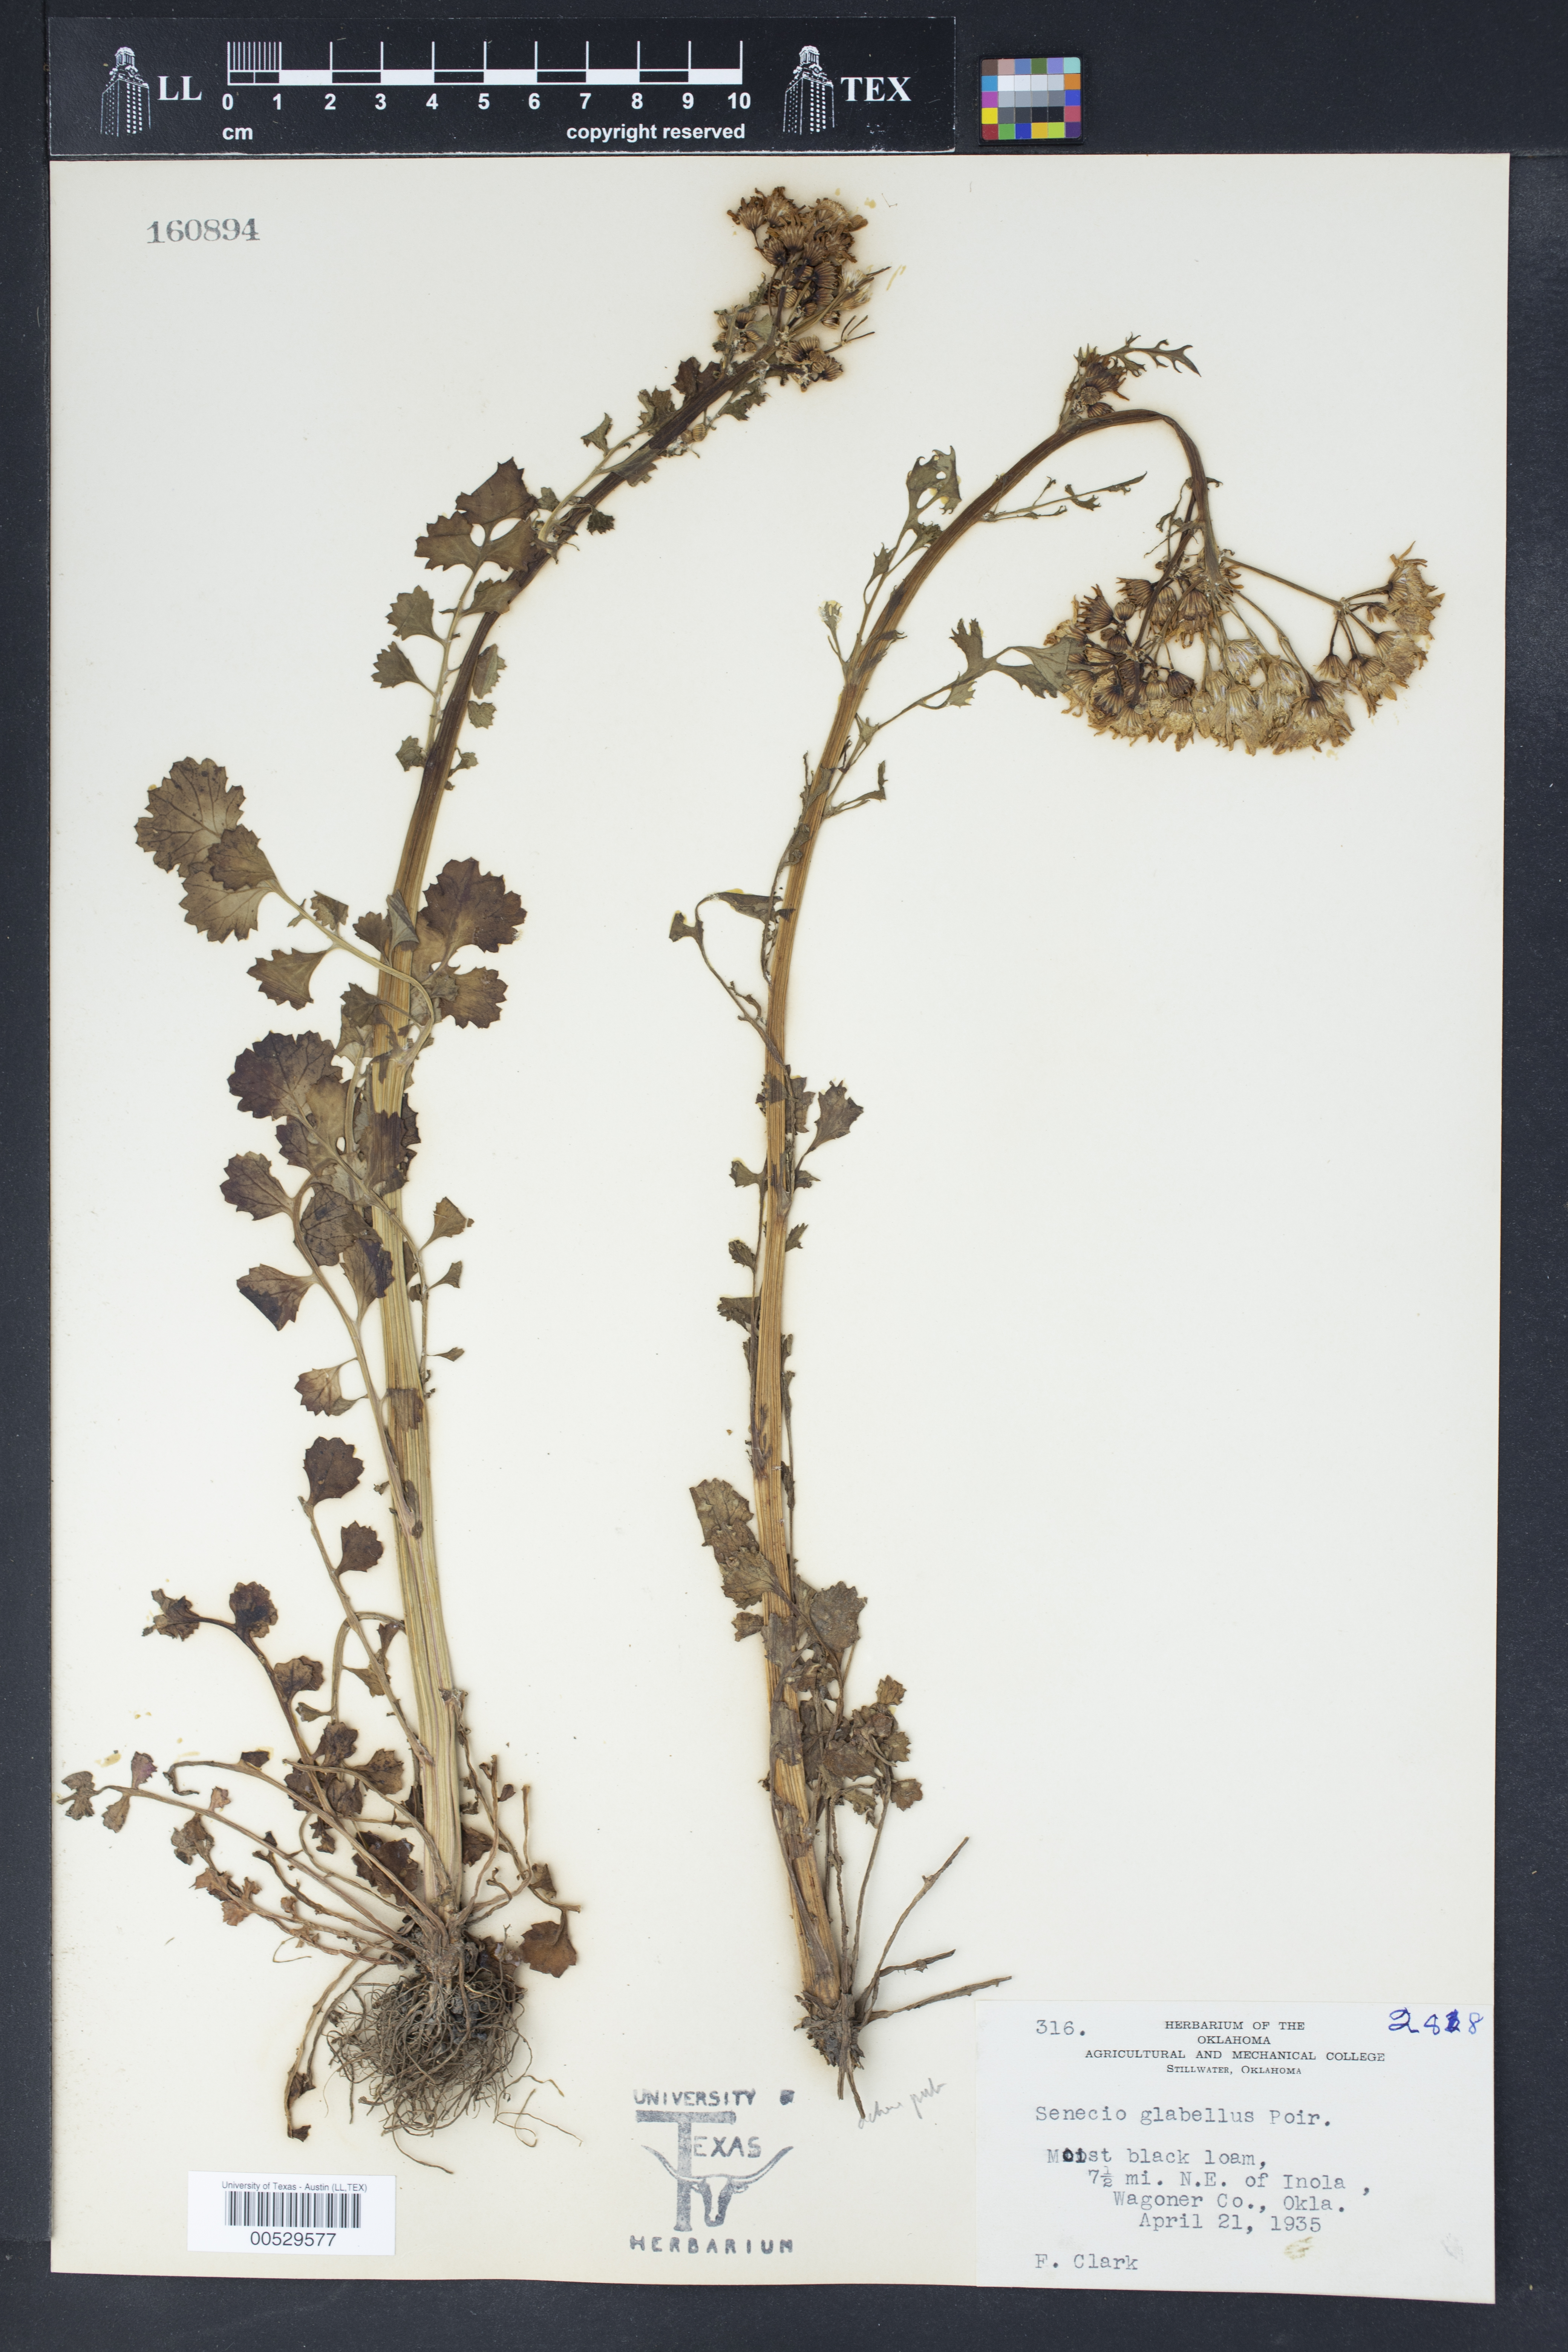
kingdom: Plantae
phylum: Tracheophyta
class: Magnoliopsida
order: Asterales
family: Asteraceae
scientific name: Asteraceae
